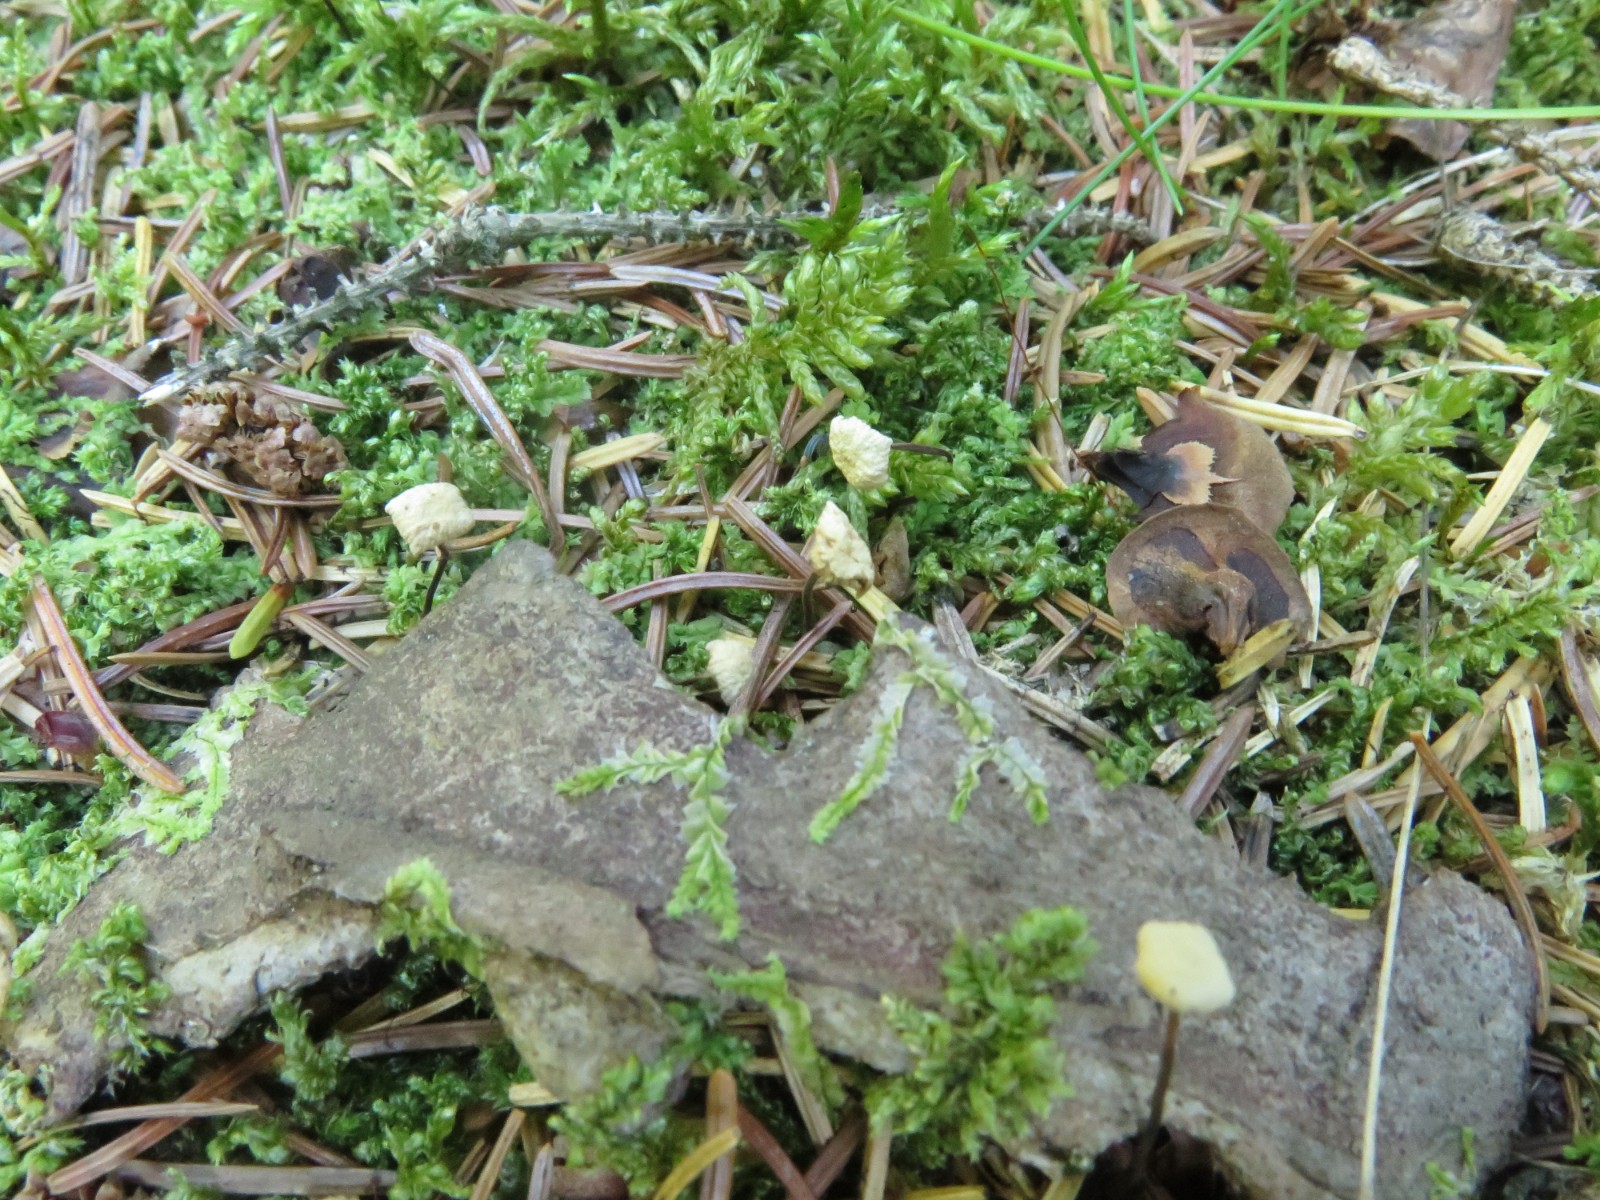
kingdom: Fungi
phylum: Basidiomycota
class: Agaricomycetes
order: Agaricales
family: Omphalotaceae
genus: Paragymnopus
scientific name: Paragymnopus perforans
